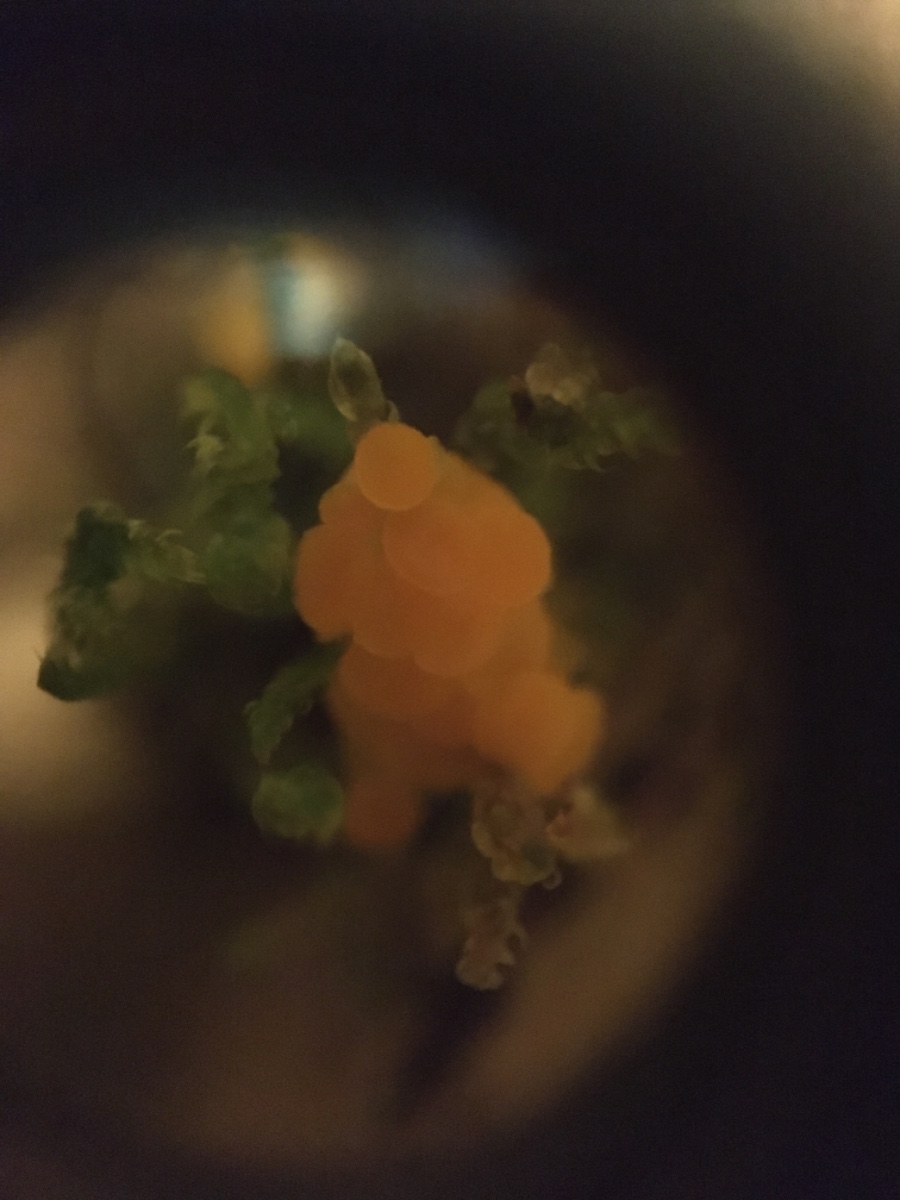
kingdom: Fungi
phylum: Ascomycota
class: Pezizomycetes
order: Pezizales
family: Pyronemataceae
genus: Byssonectria
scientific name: Byssonectria terrestris
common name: hjortebæger
